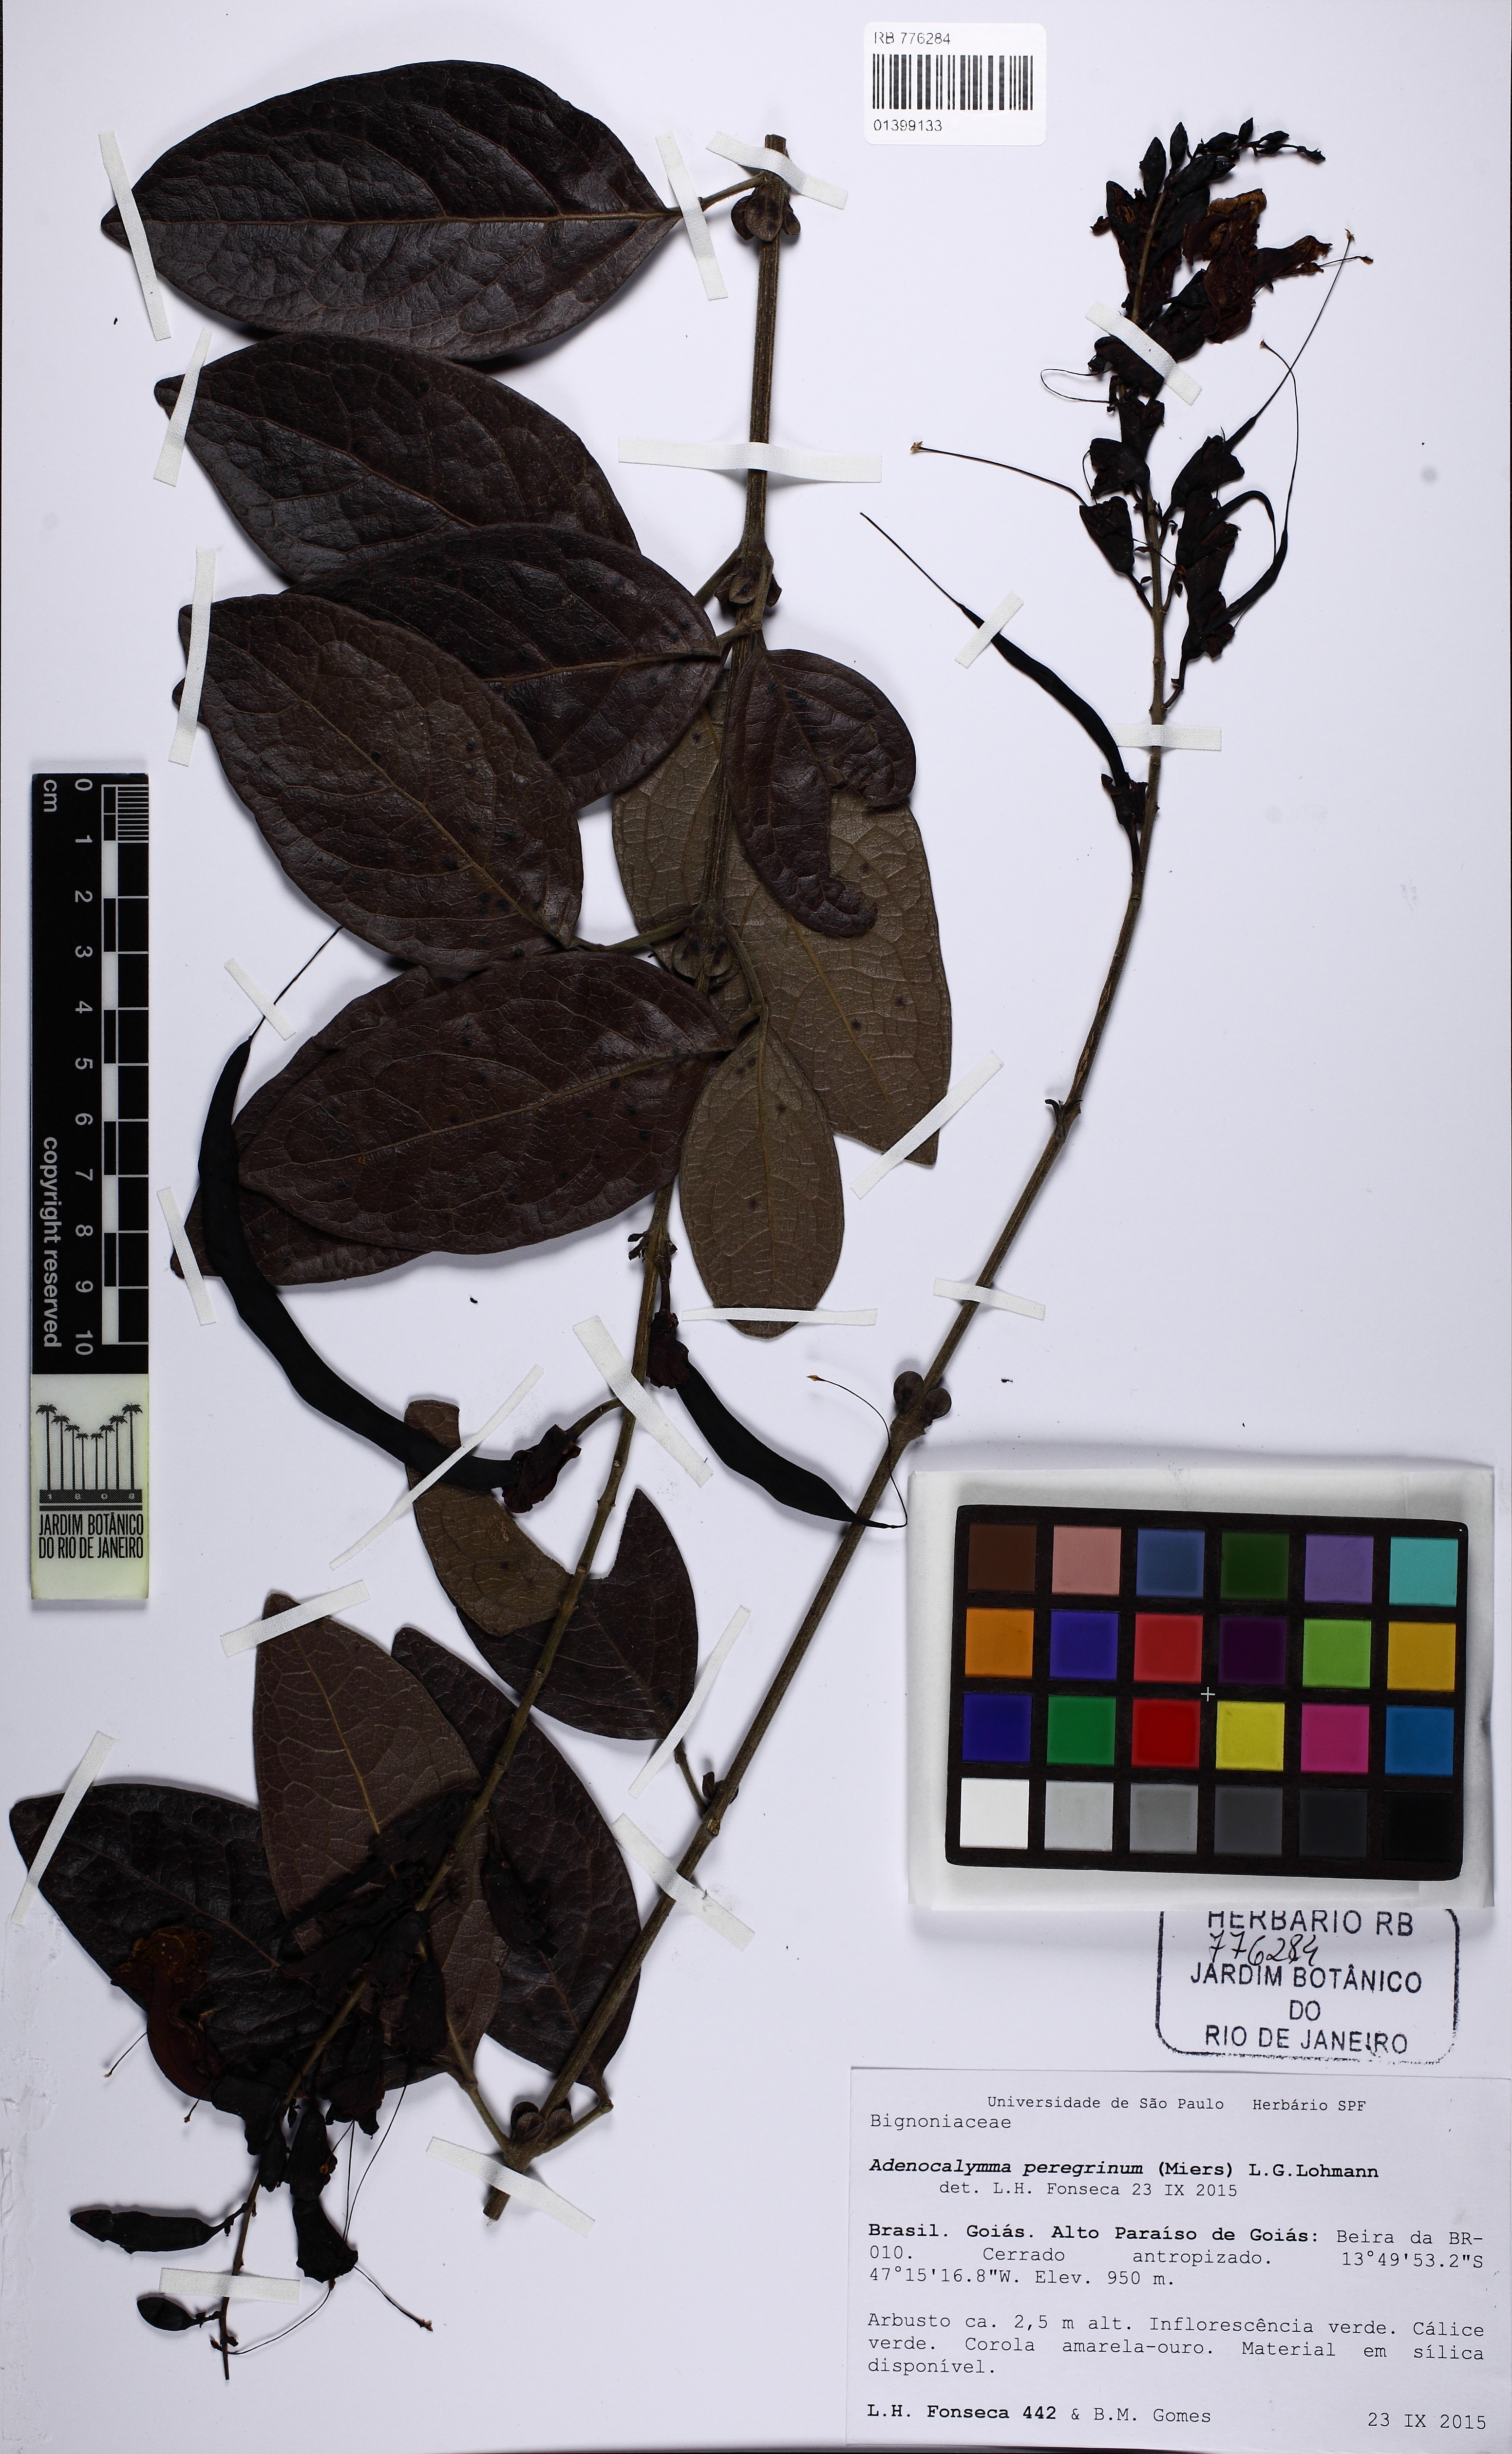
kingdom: Plantae
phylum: Tracheophyta
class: Magnoliopsida
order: Lamiales
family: Bignoniaceae
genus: Adenocalymma
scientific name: Adenocalymma peregrinum
